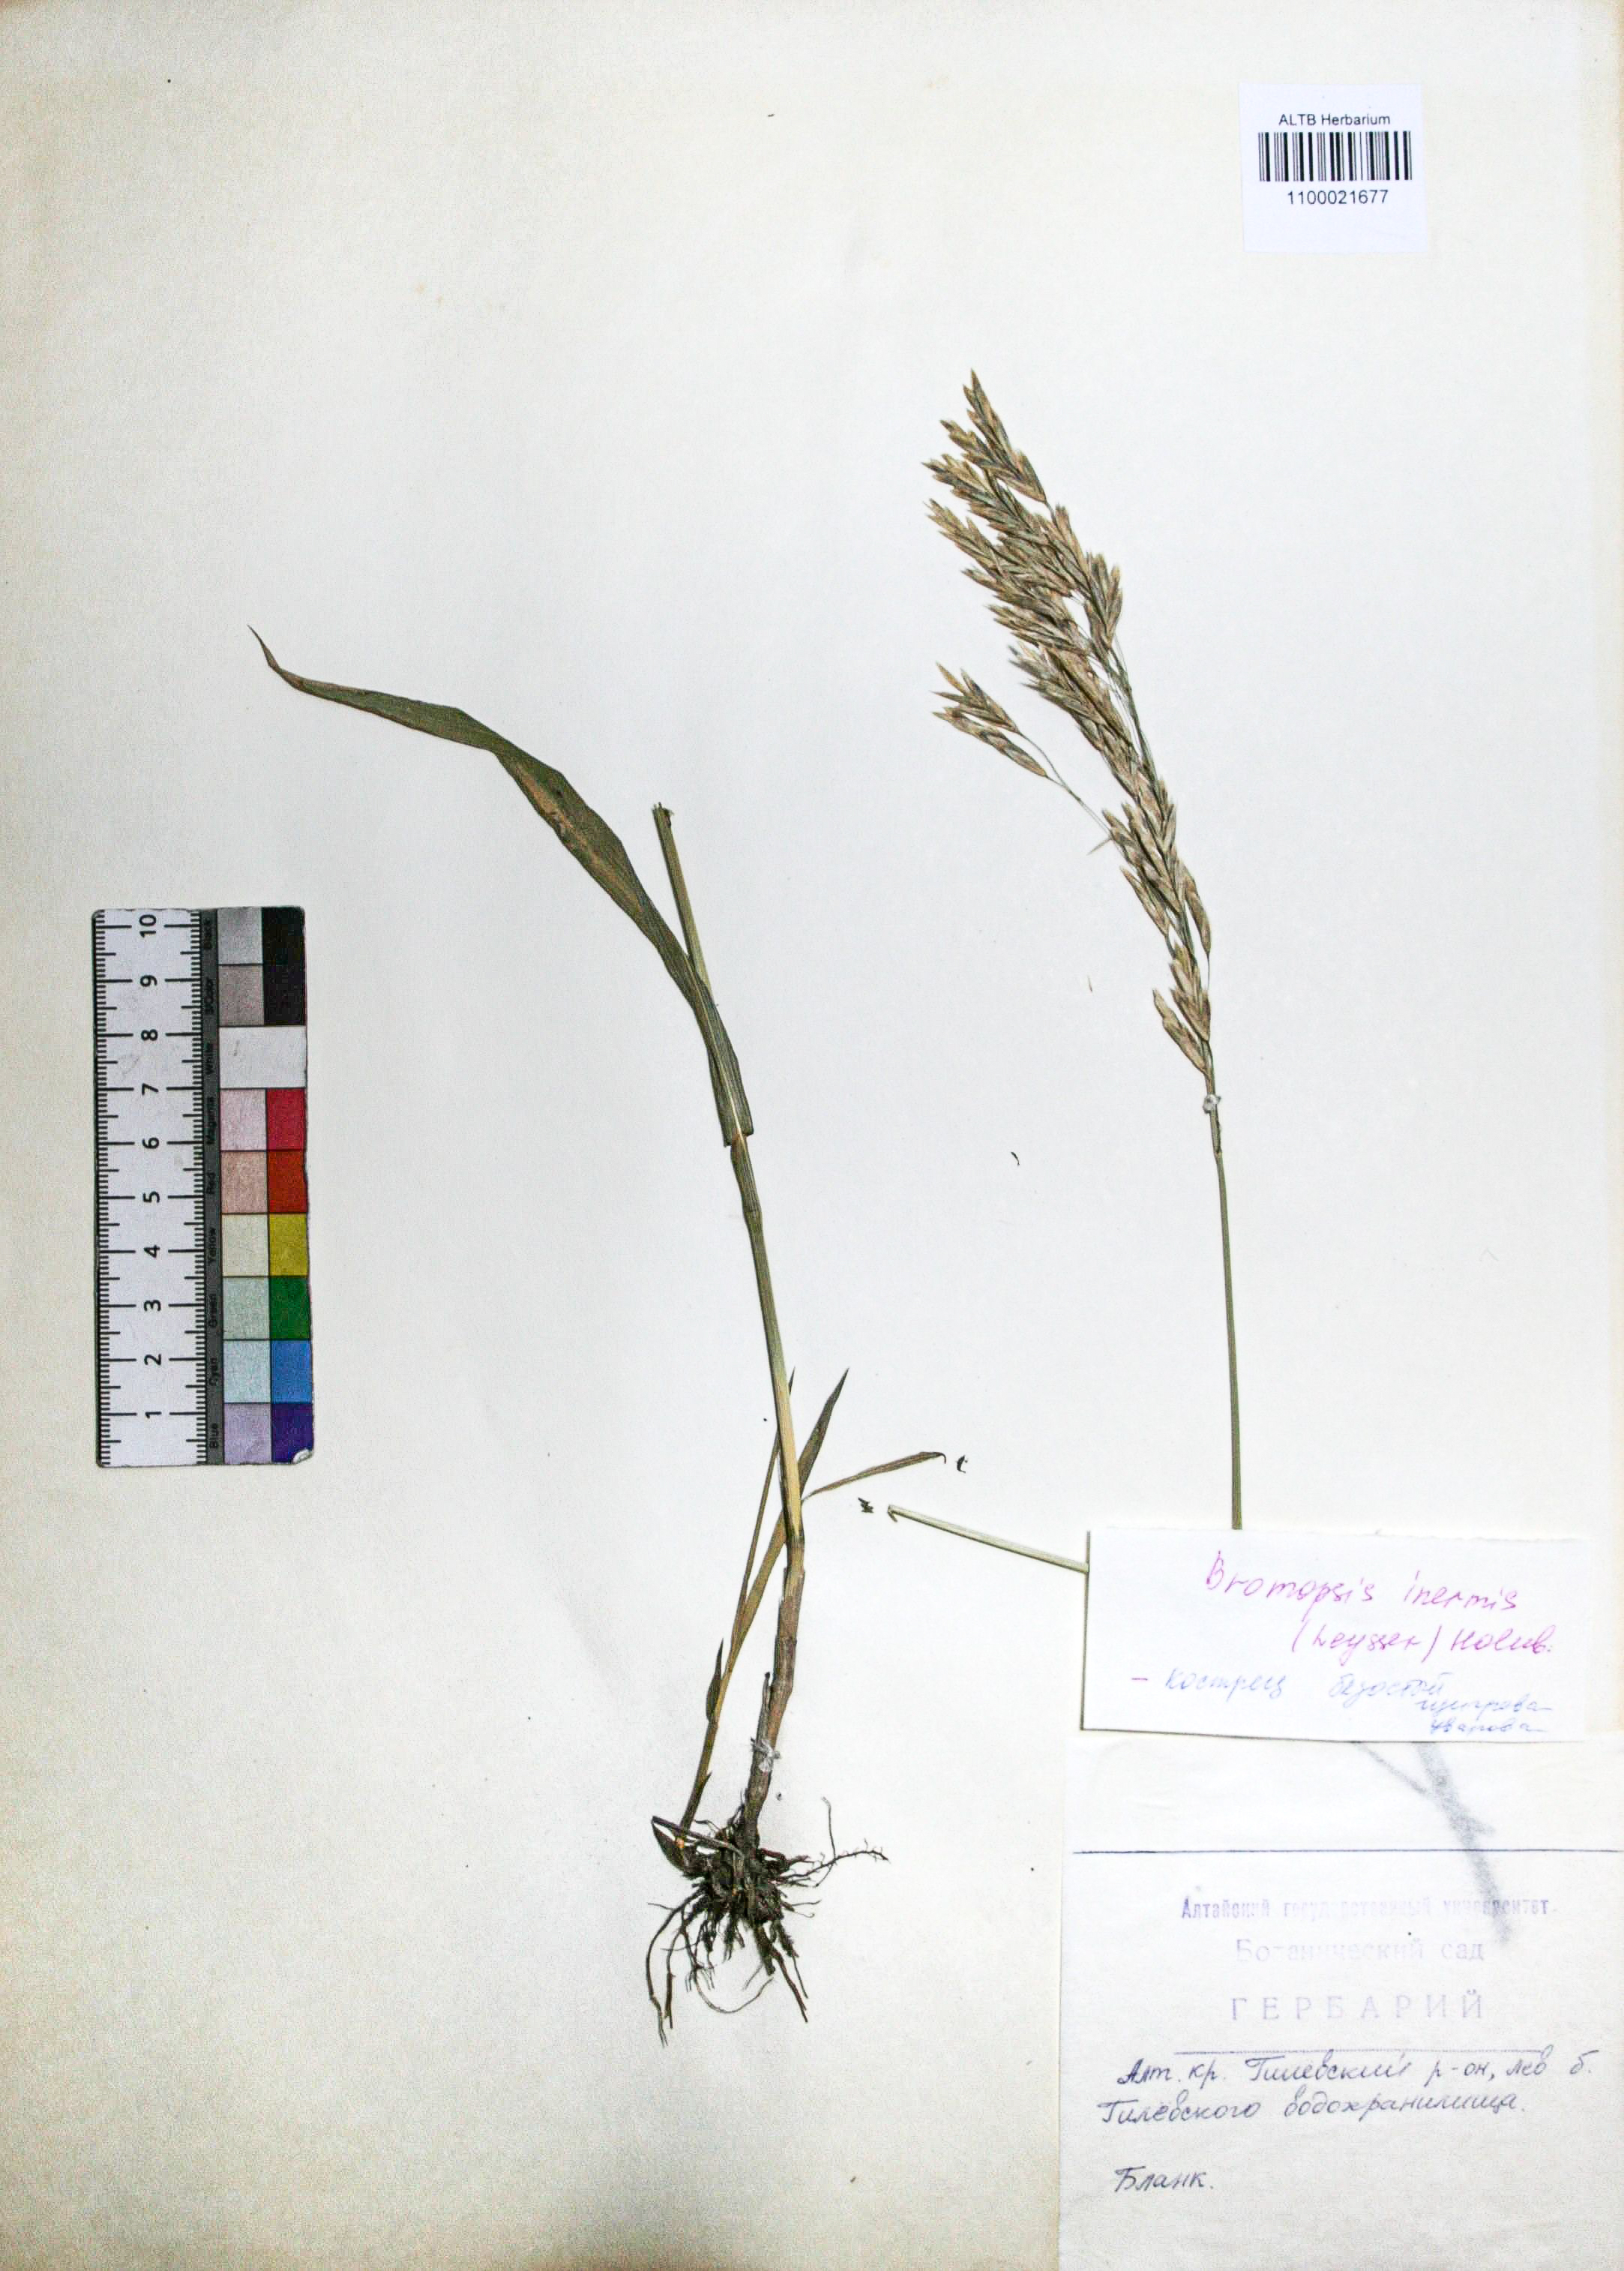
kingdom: Plantae
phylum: Tracheophyta
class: Liliopsida
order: Poales
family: Poaceae
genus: Bromus
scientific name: Bromus inermis
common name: Smooth brome
